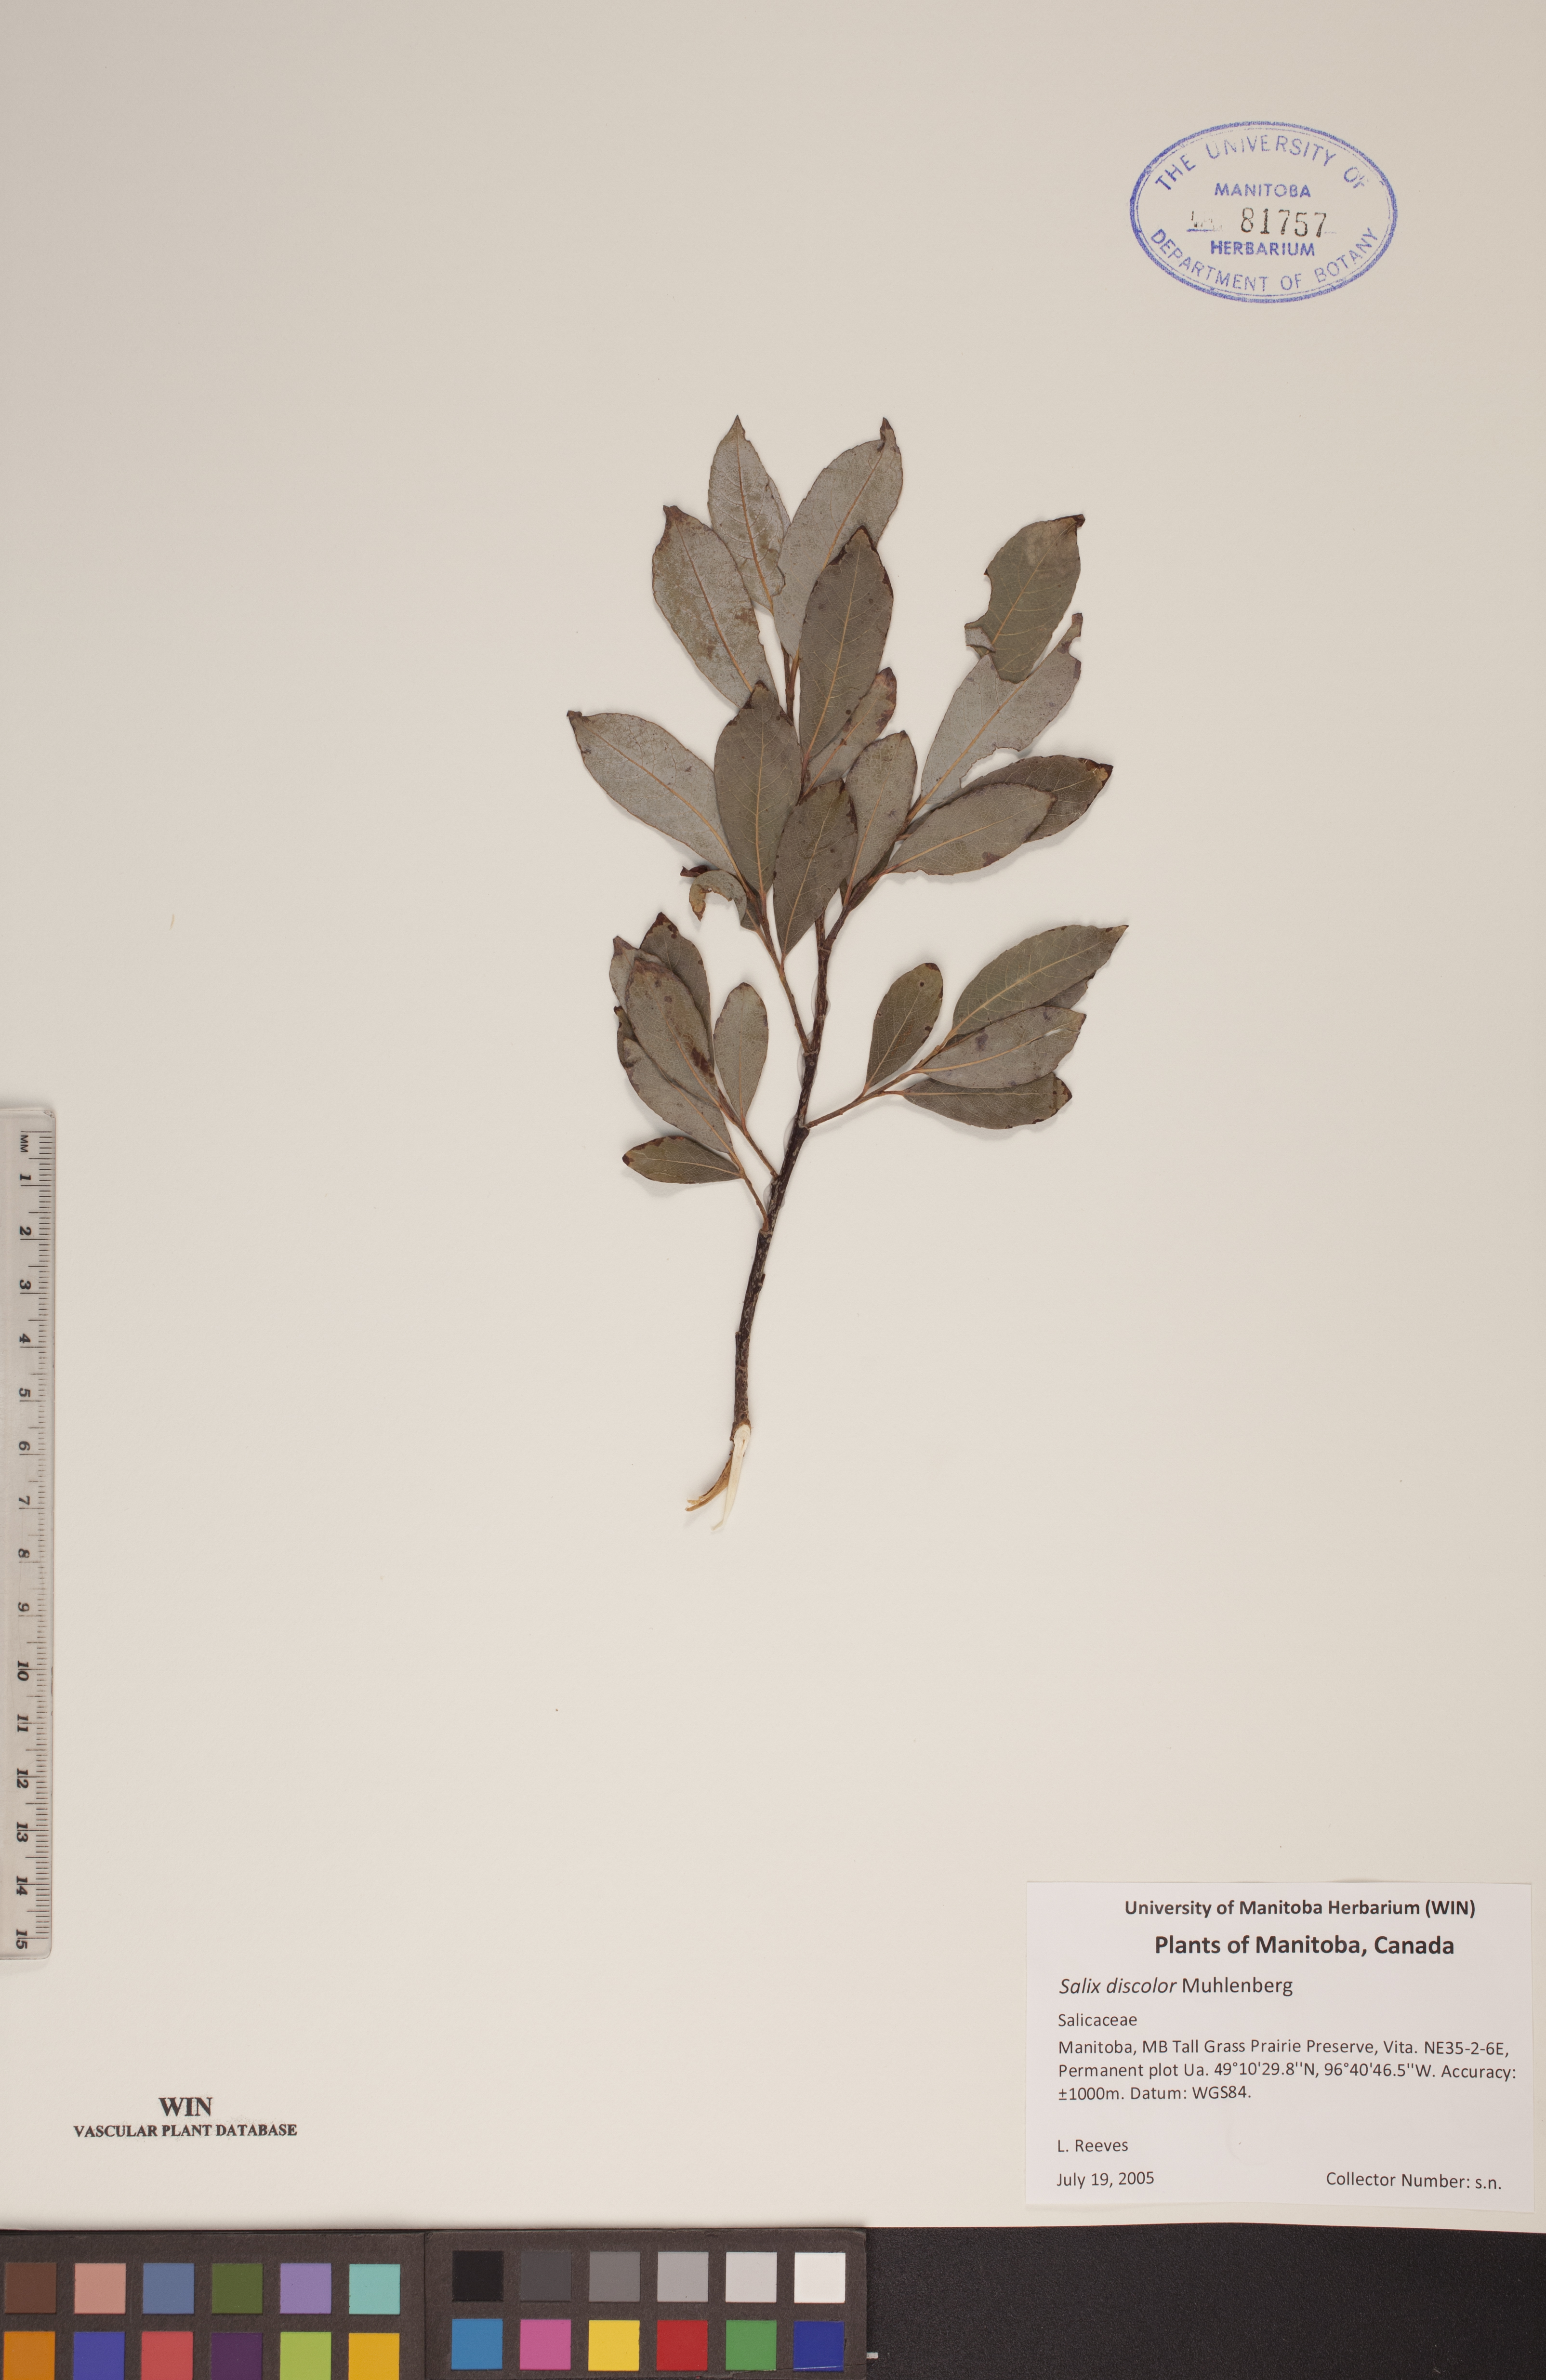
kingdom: Plantae
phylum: Tracheophyta
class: Magnoliopsida
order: Malpighiales
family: Salicaceae
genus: Salix
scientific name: Salix discolor
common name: Glaucous willow
